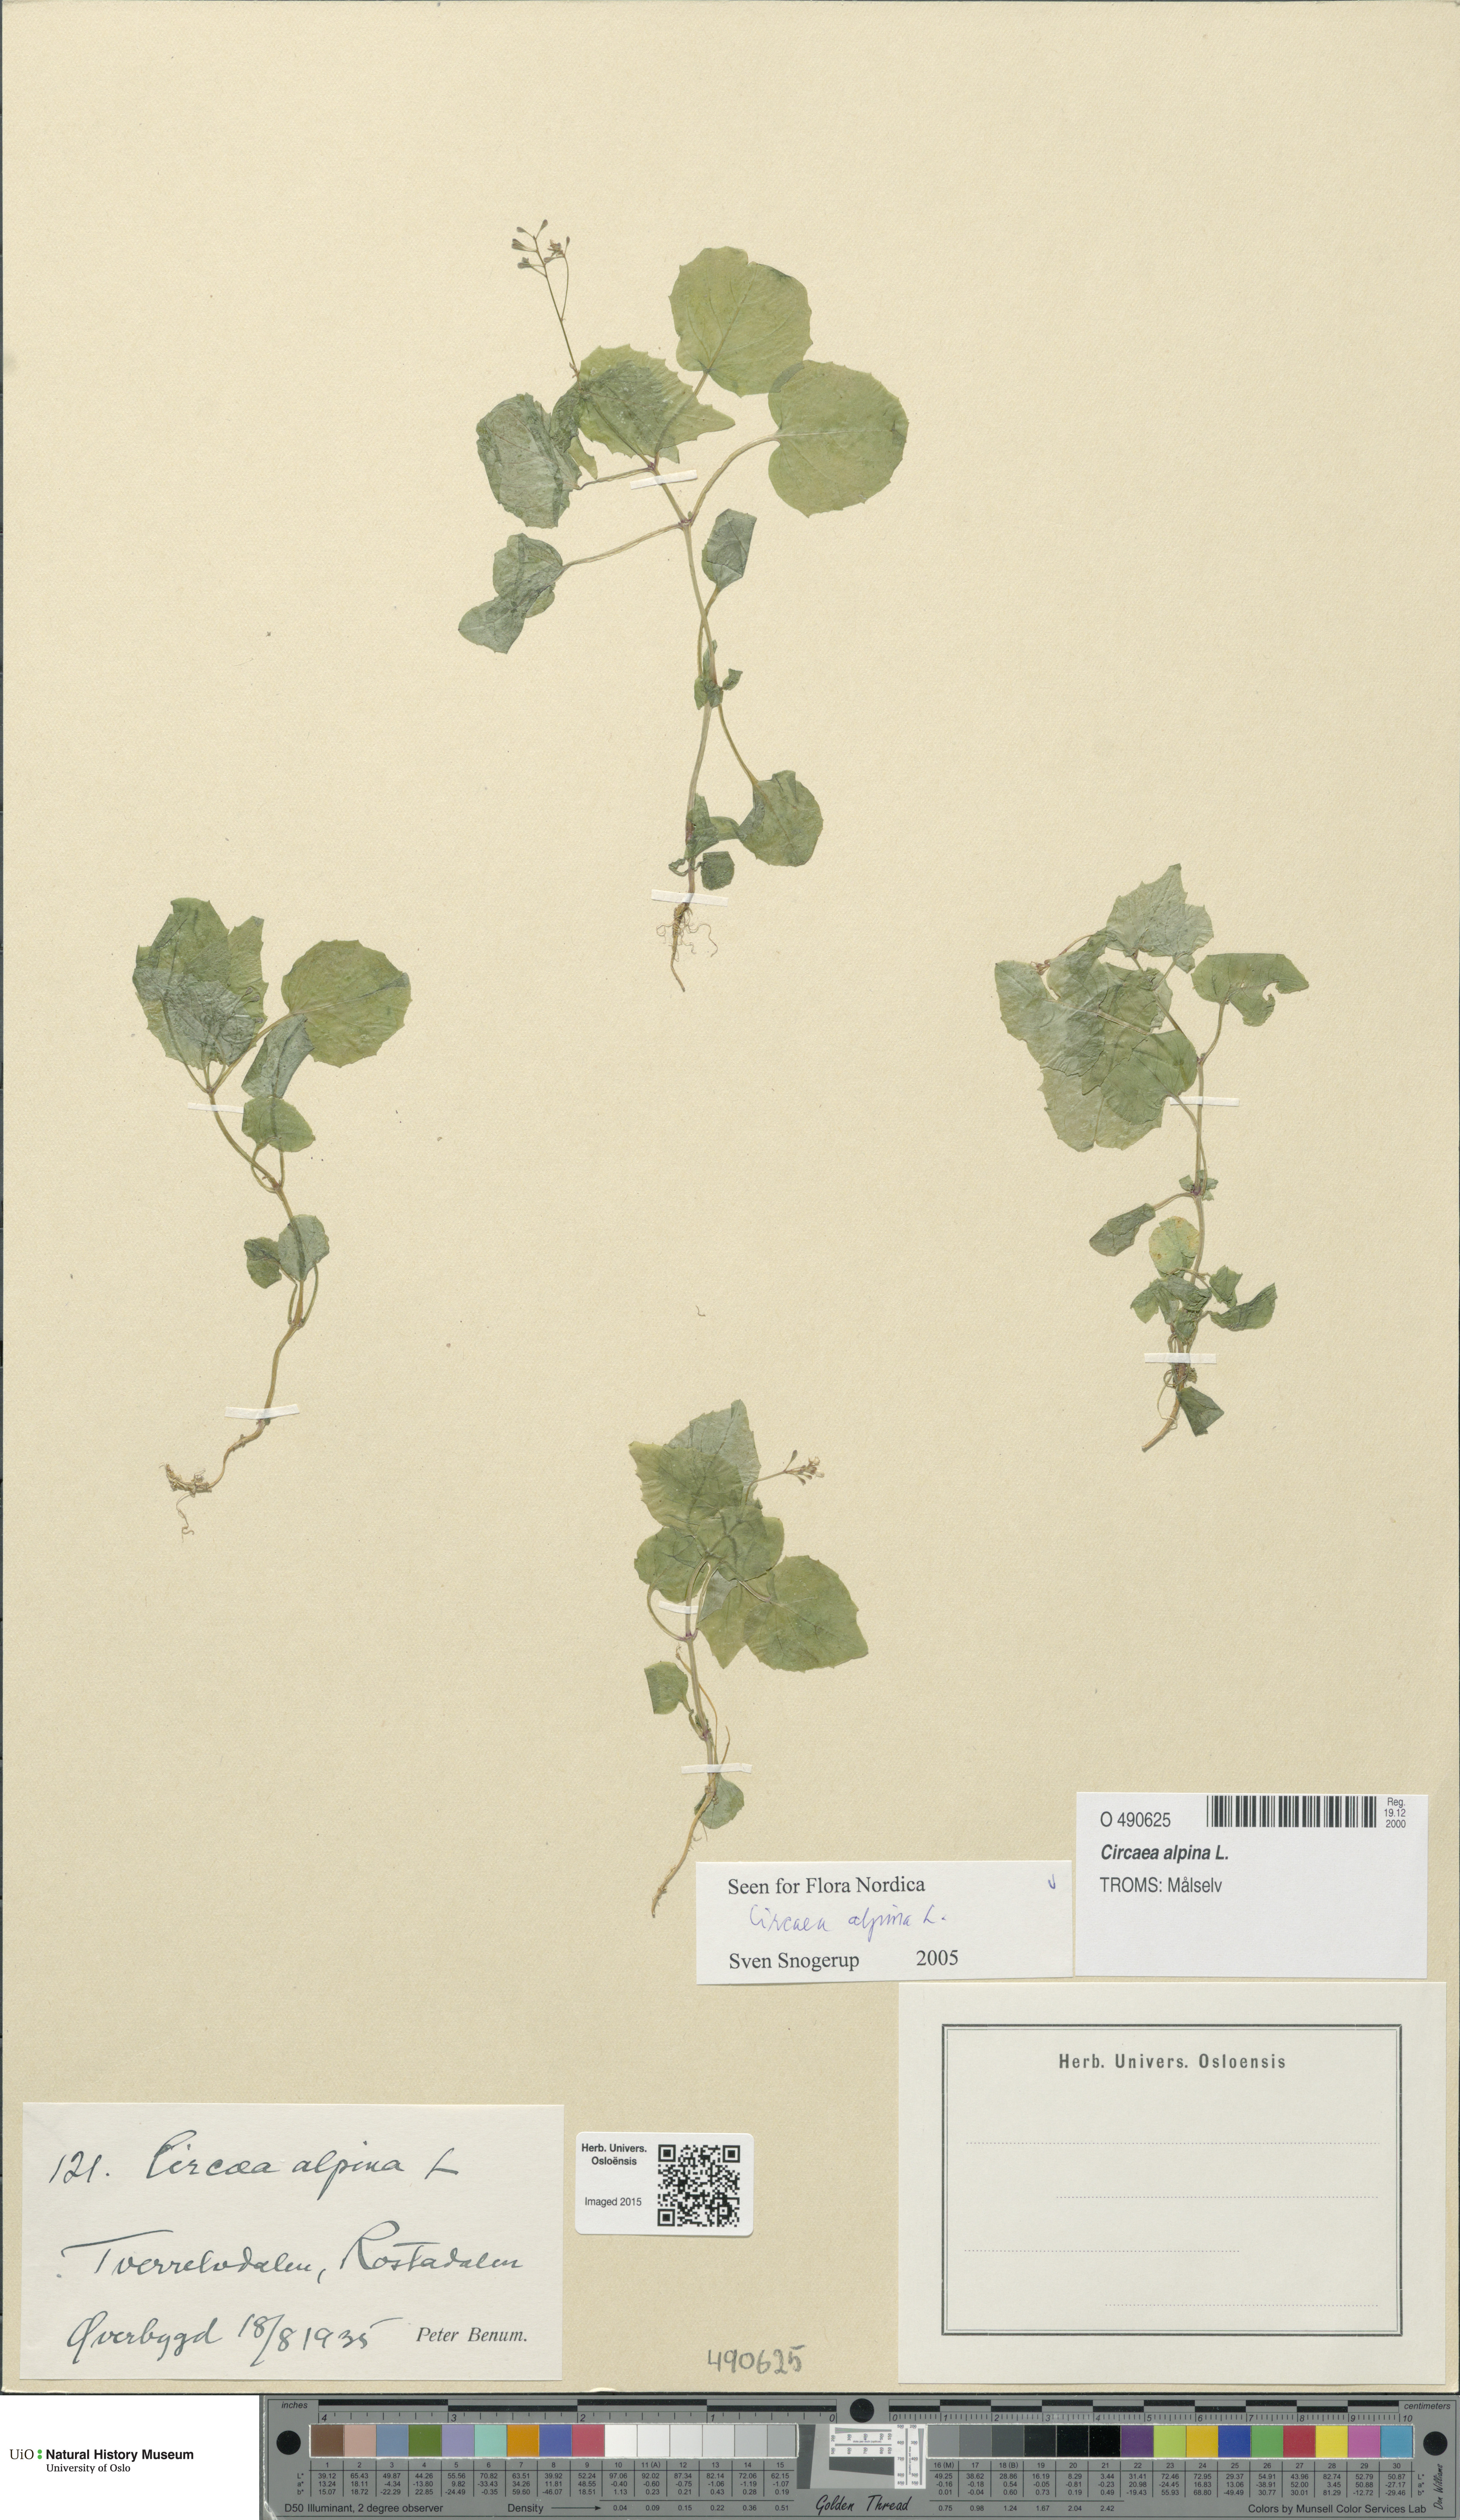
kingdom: Plantae
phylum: Tracheophyta
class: Magnoliopsida
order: Myrtales
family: Onagraceae
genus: Circaea
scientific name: Circaea alpina
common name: Alpine enchanter's-nightshade
